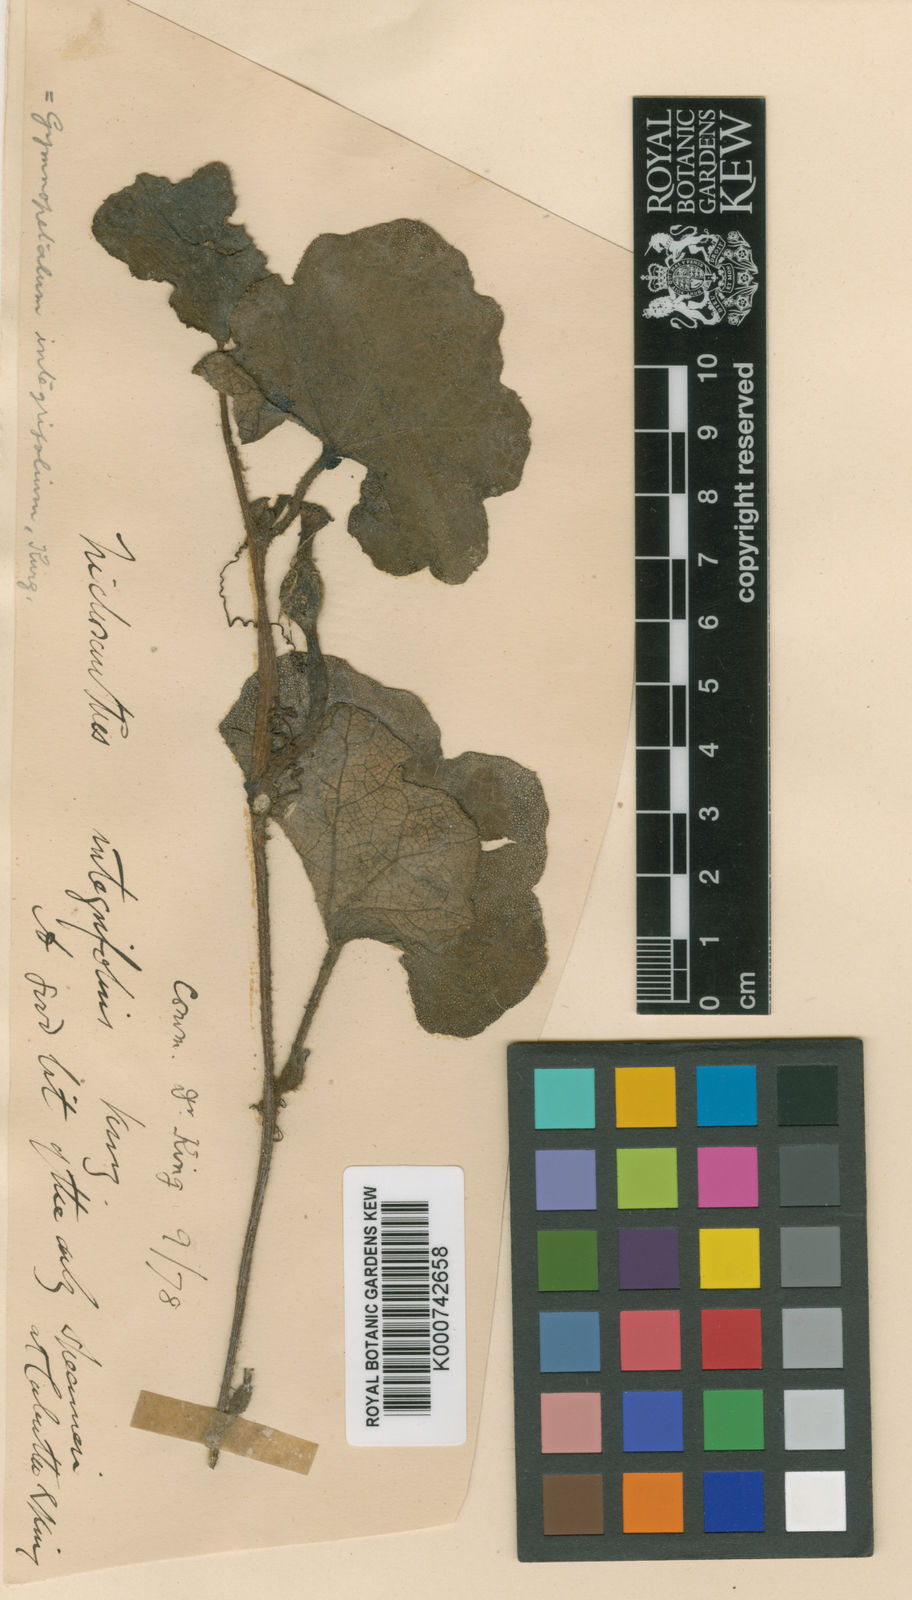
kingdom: Plantae
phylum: Tracheophyta
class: Magnoliopsida
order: Cucurbitales
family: Cucurbitaceae
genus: Trichosanthes
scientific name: Trichosanthes scabra
